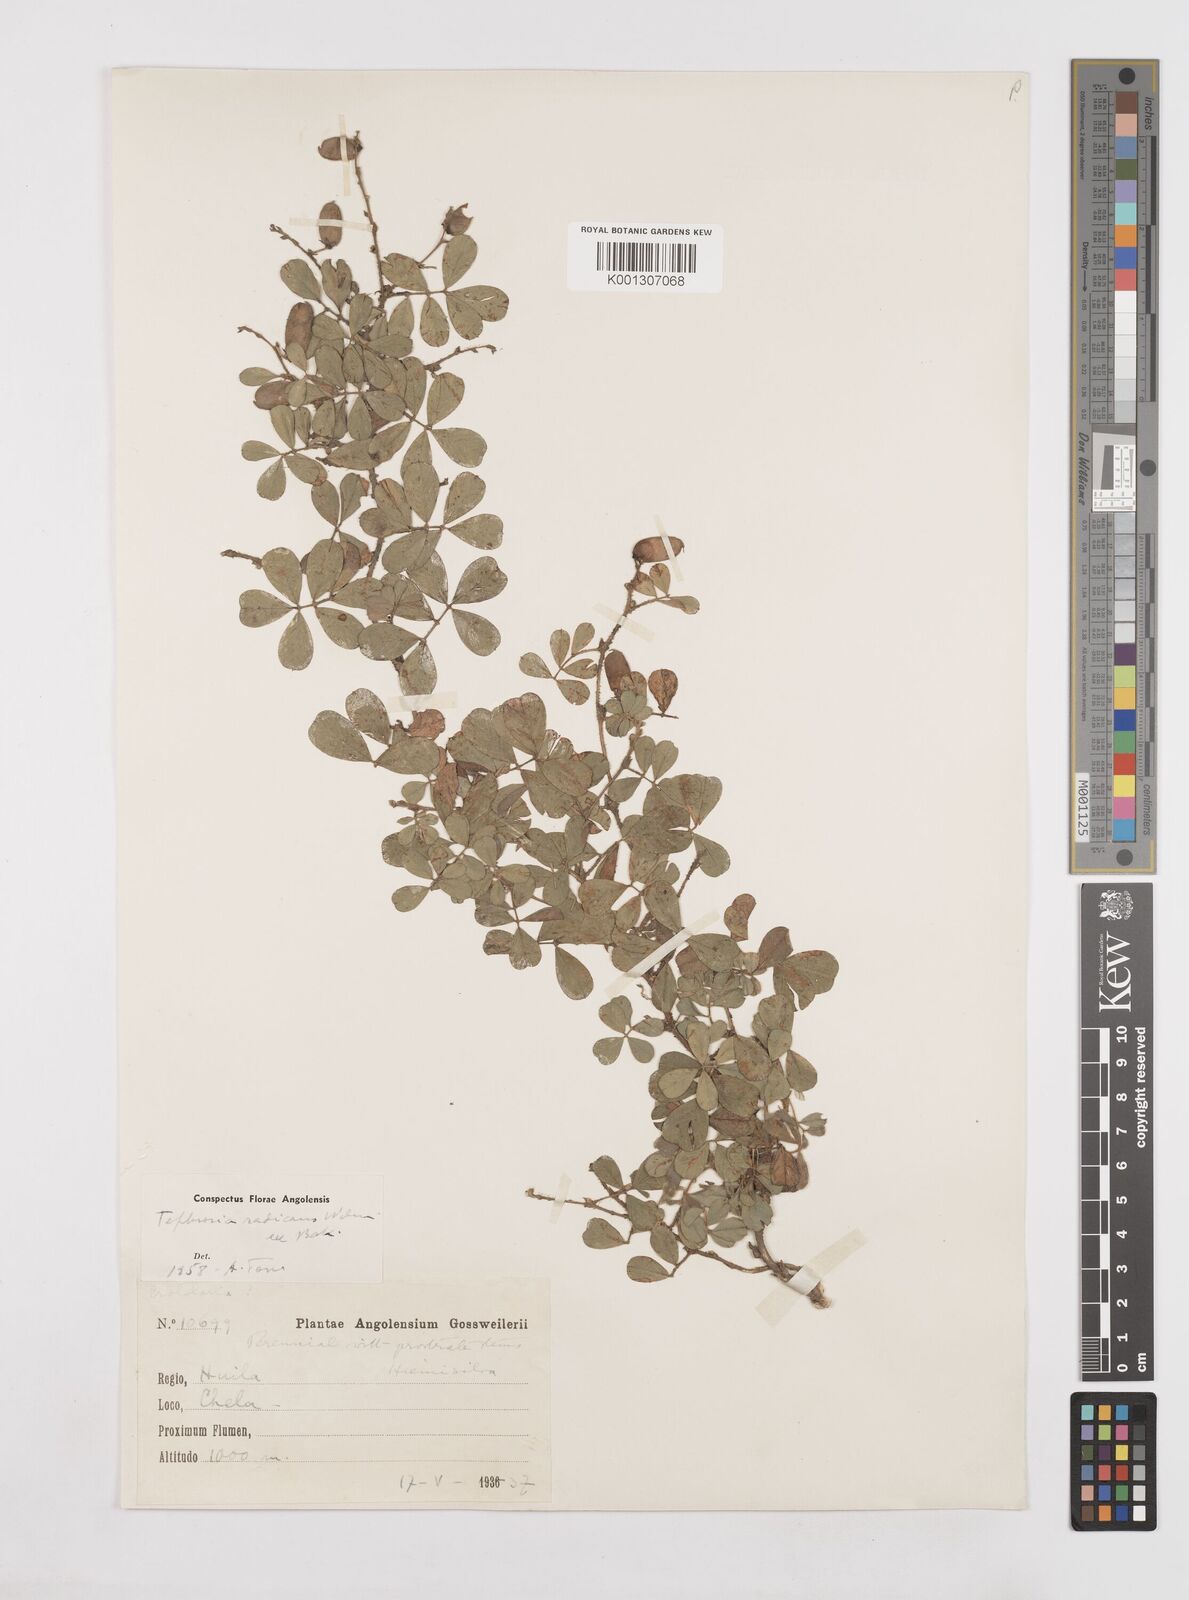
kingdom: Plantae
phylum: Tracheophyta
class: Magnoliopsida
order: Fabales
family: Fabaceae
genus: Tephrosia
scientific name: Tephrosia radicans
